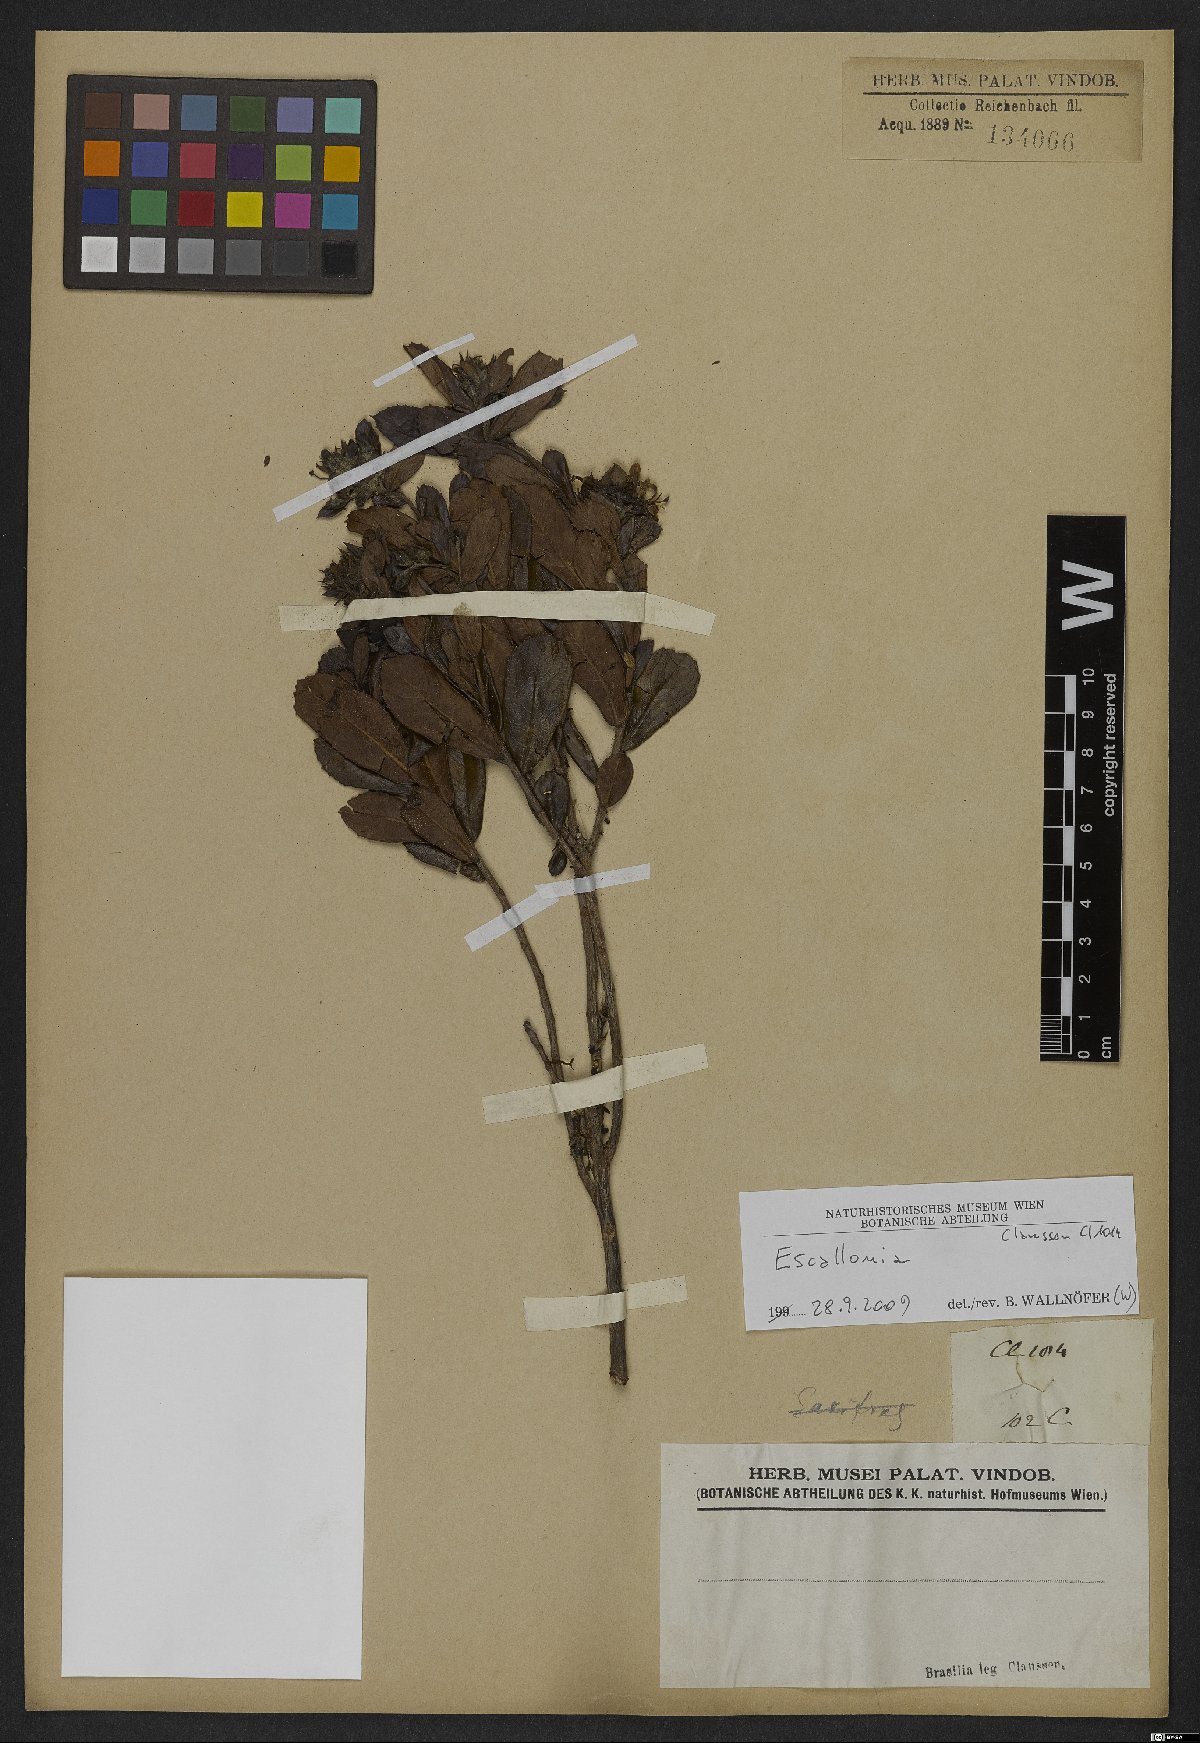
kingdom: Plantae
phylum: Tracheophyta
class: Magnoliopsida
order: Escalloniales
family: Escalloniaceae
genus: Escallonia
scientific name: Escallonia
